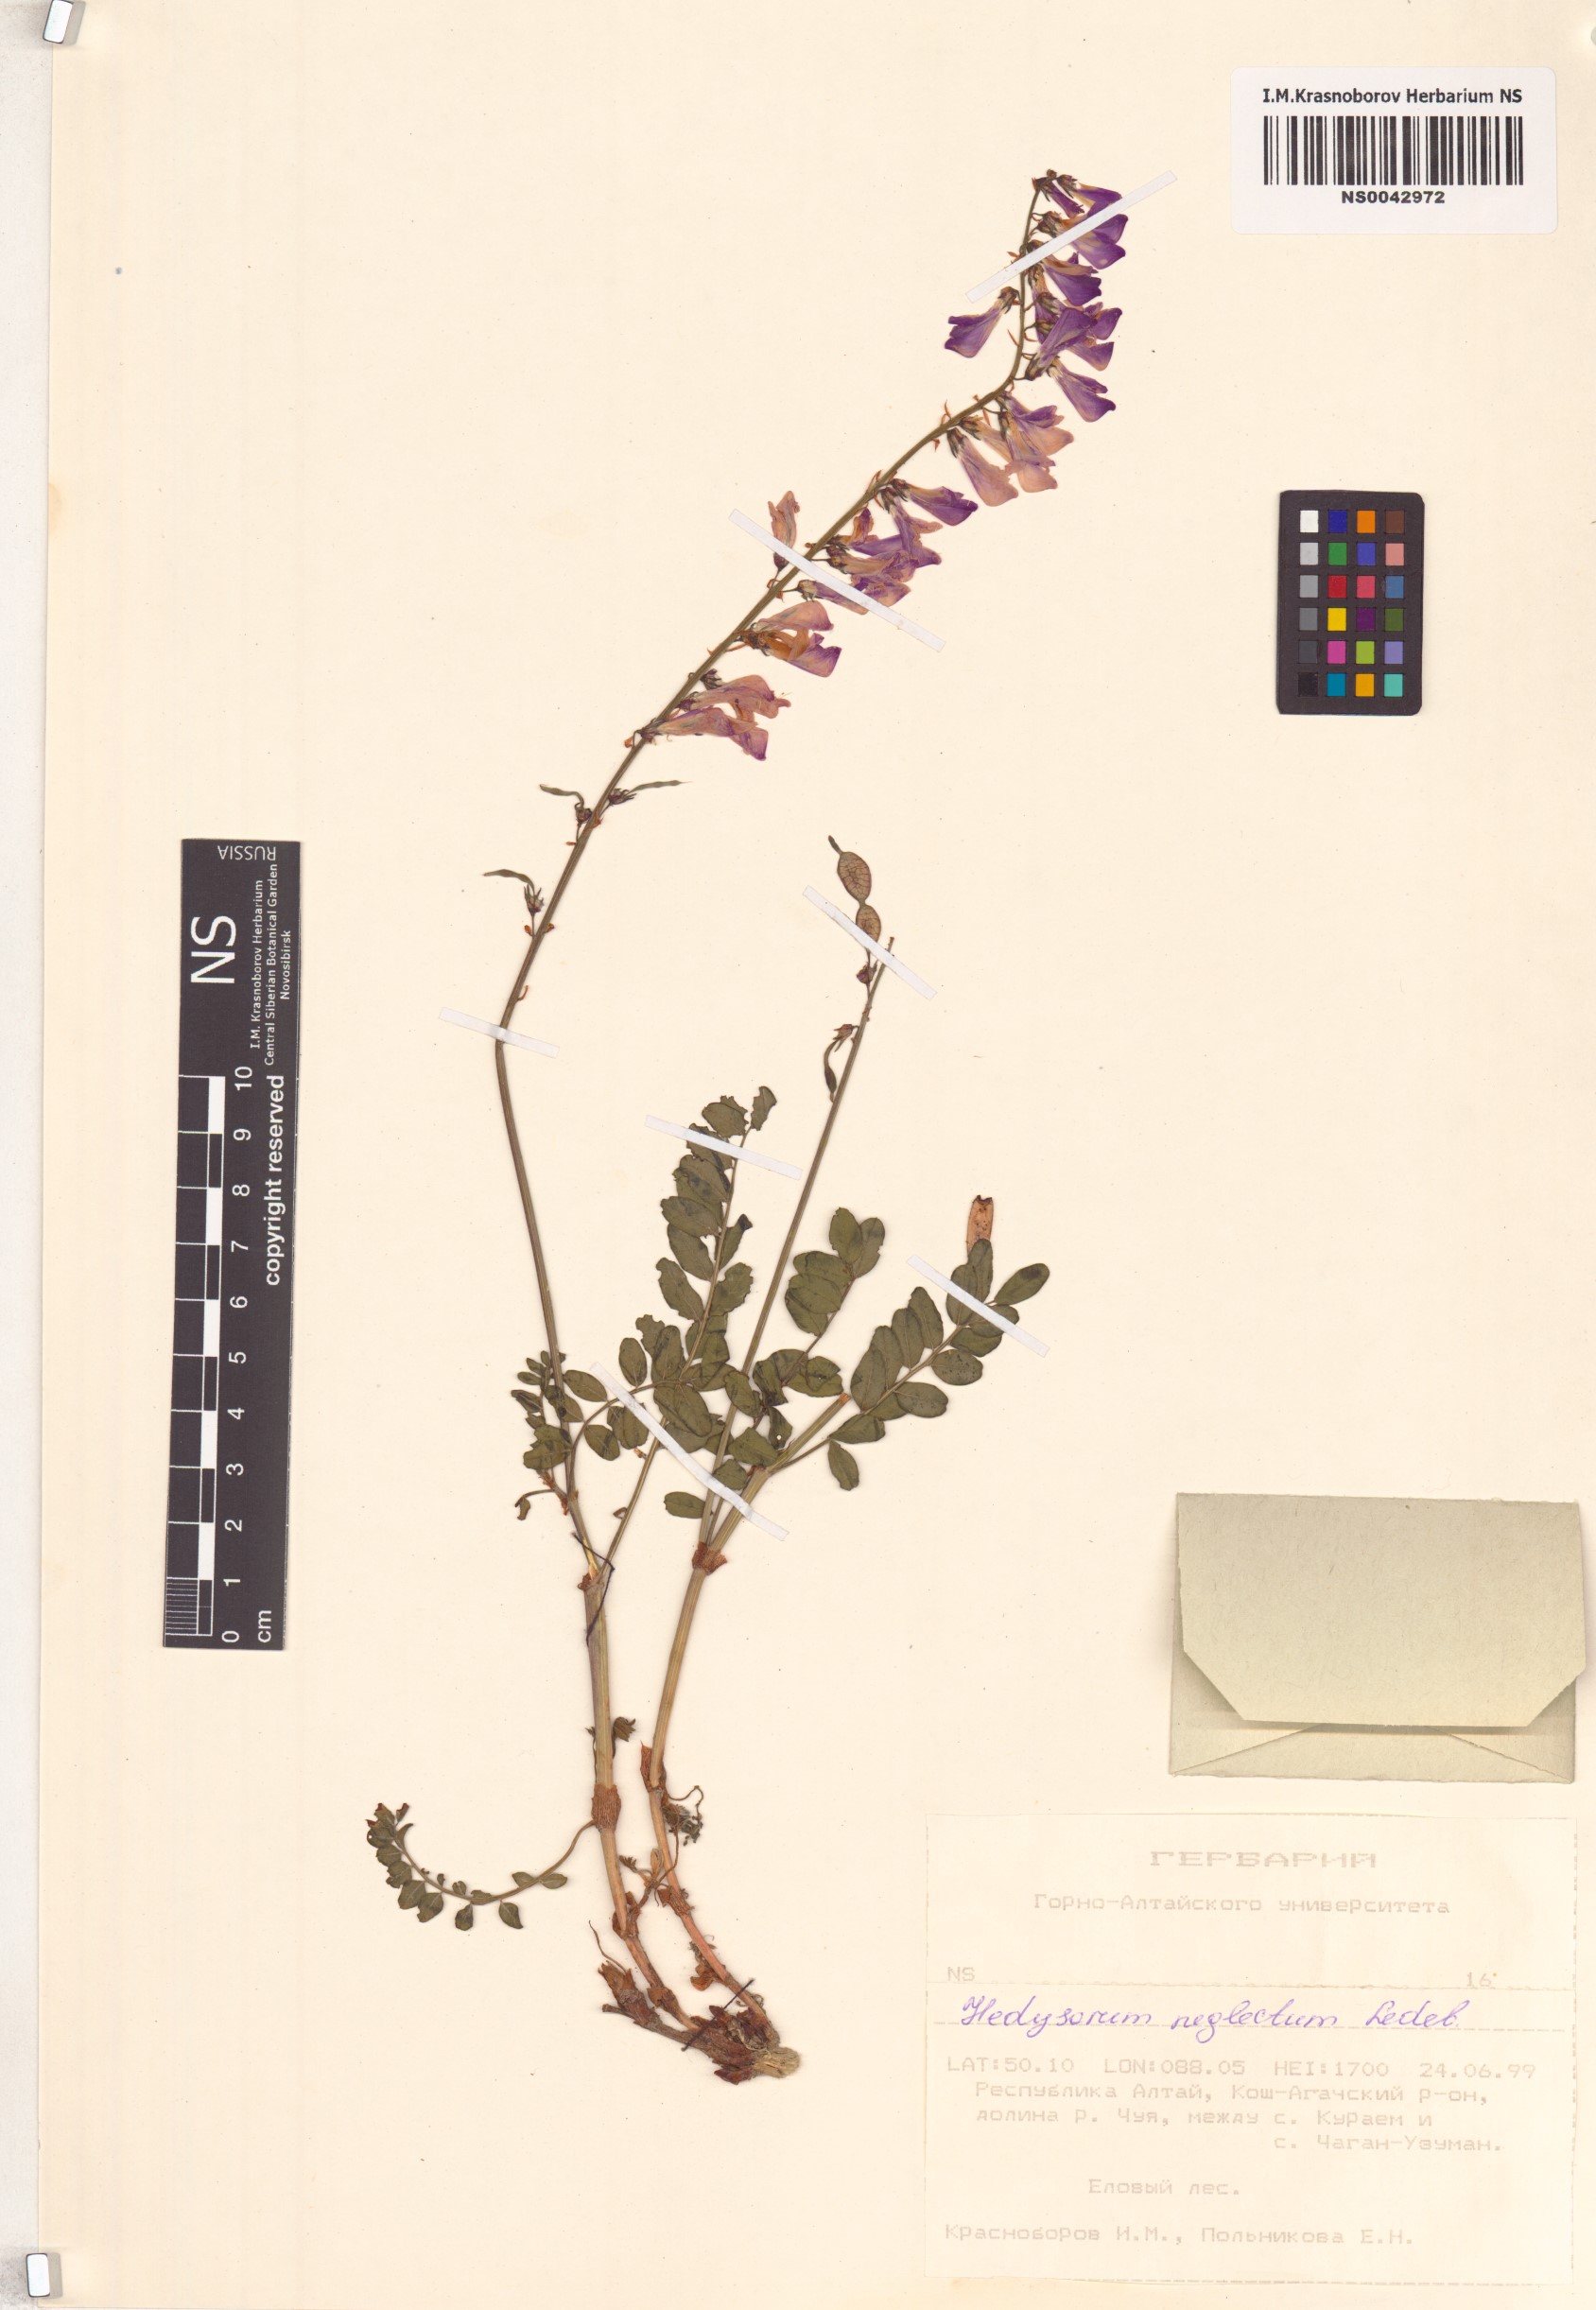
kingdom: Plantae
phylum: Tracheophyta
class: Magnoliopsida
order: Fabales
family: Fabaceae
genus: Hedysarum
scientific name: Hedysarum neglectum
